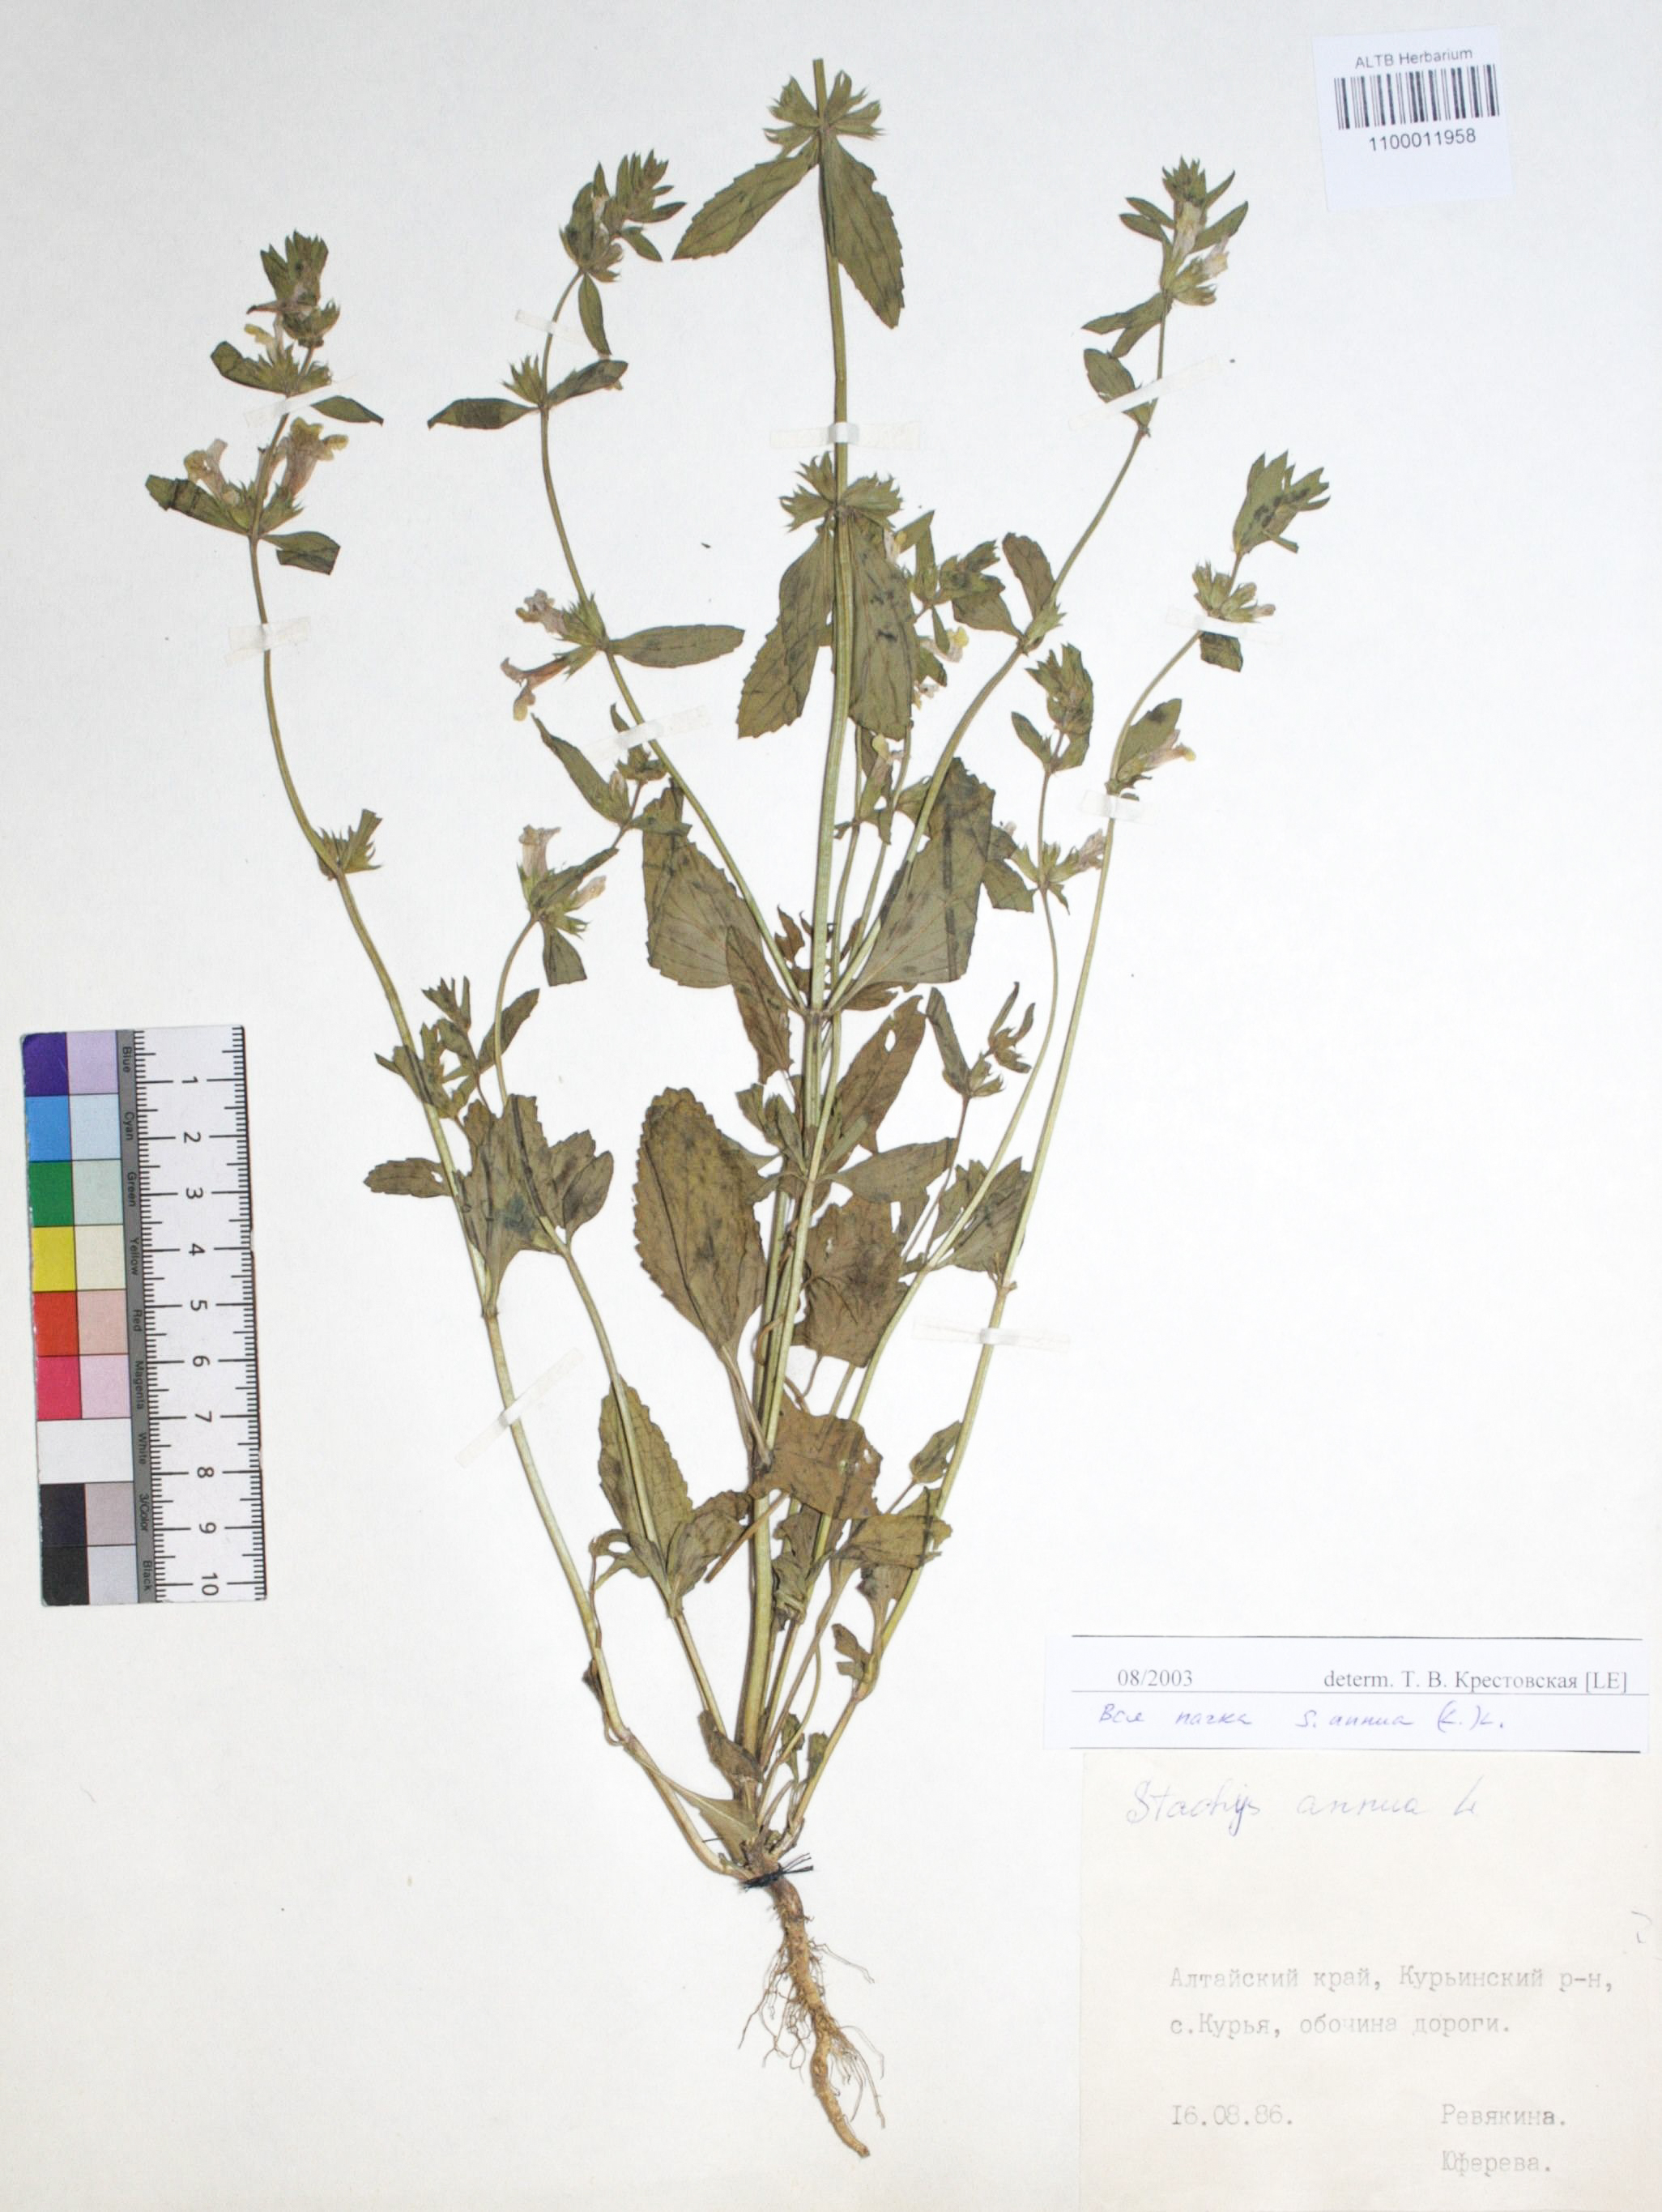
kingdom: Plantae
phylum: Tracheophyta
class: Magnoliopsida
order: Lamiales
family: Lamiaceae
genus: Stachys
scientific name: Stachys annua
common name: Annual yellow-woundwort
